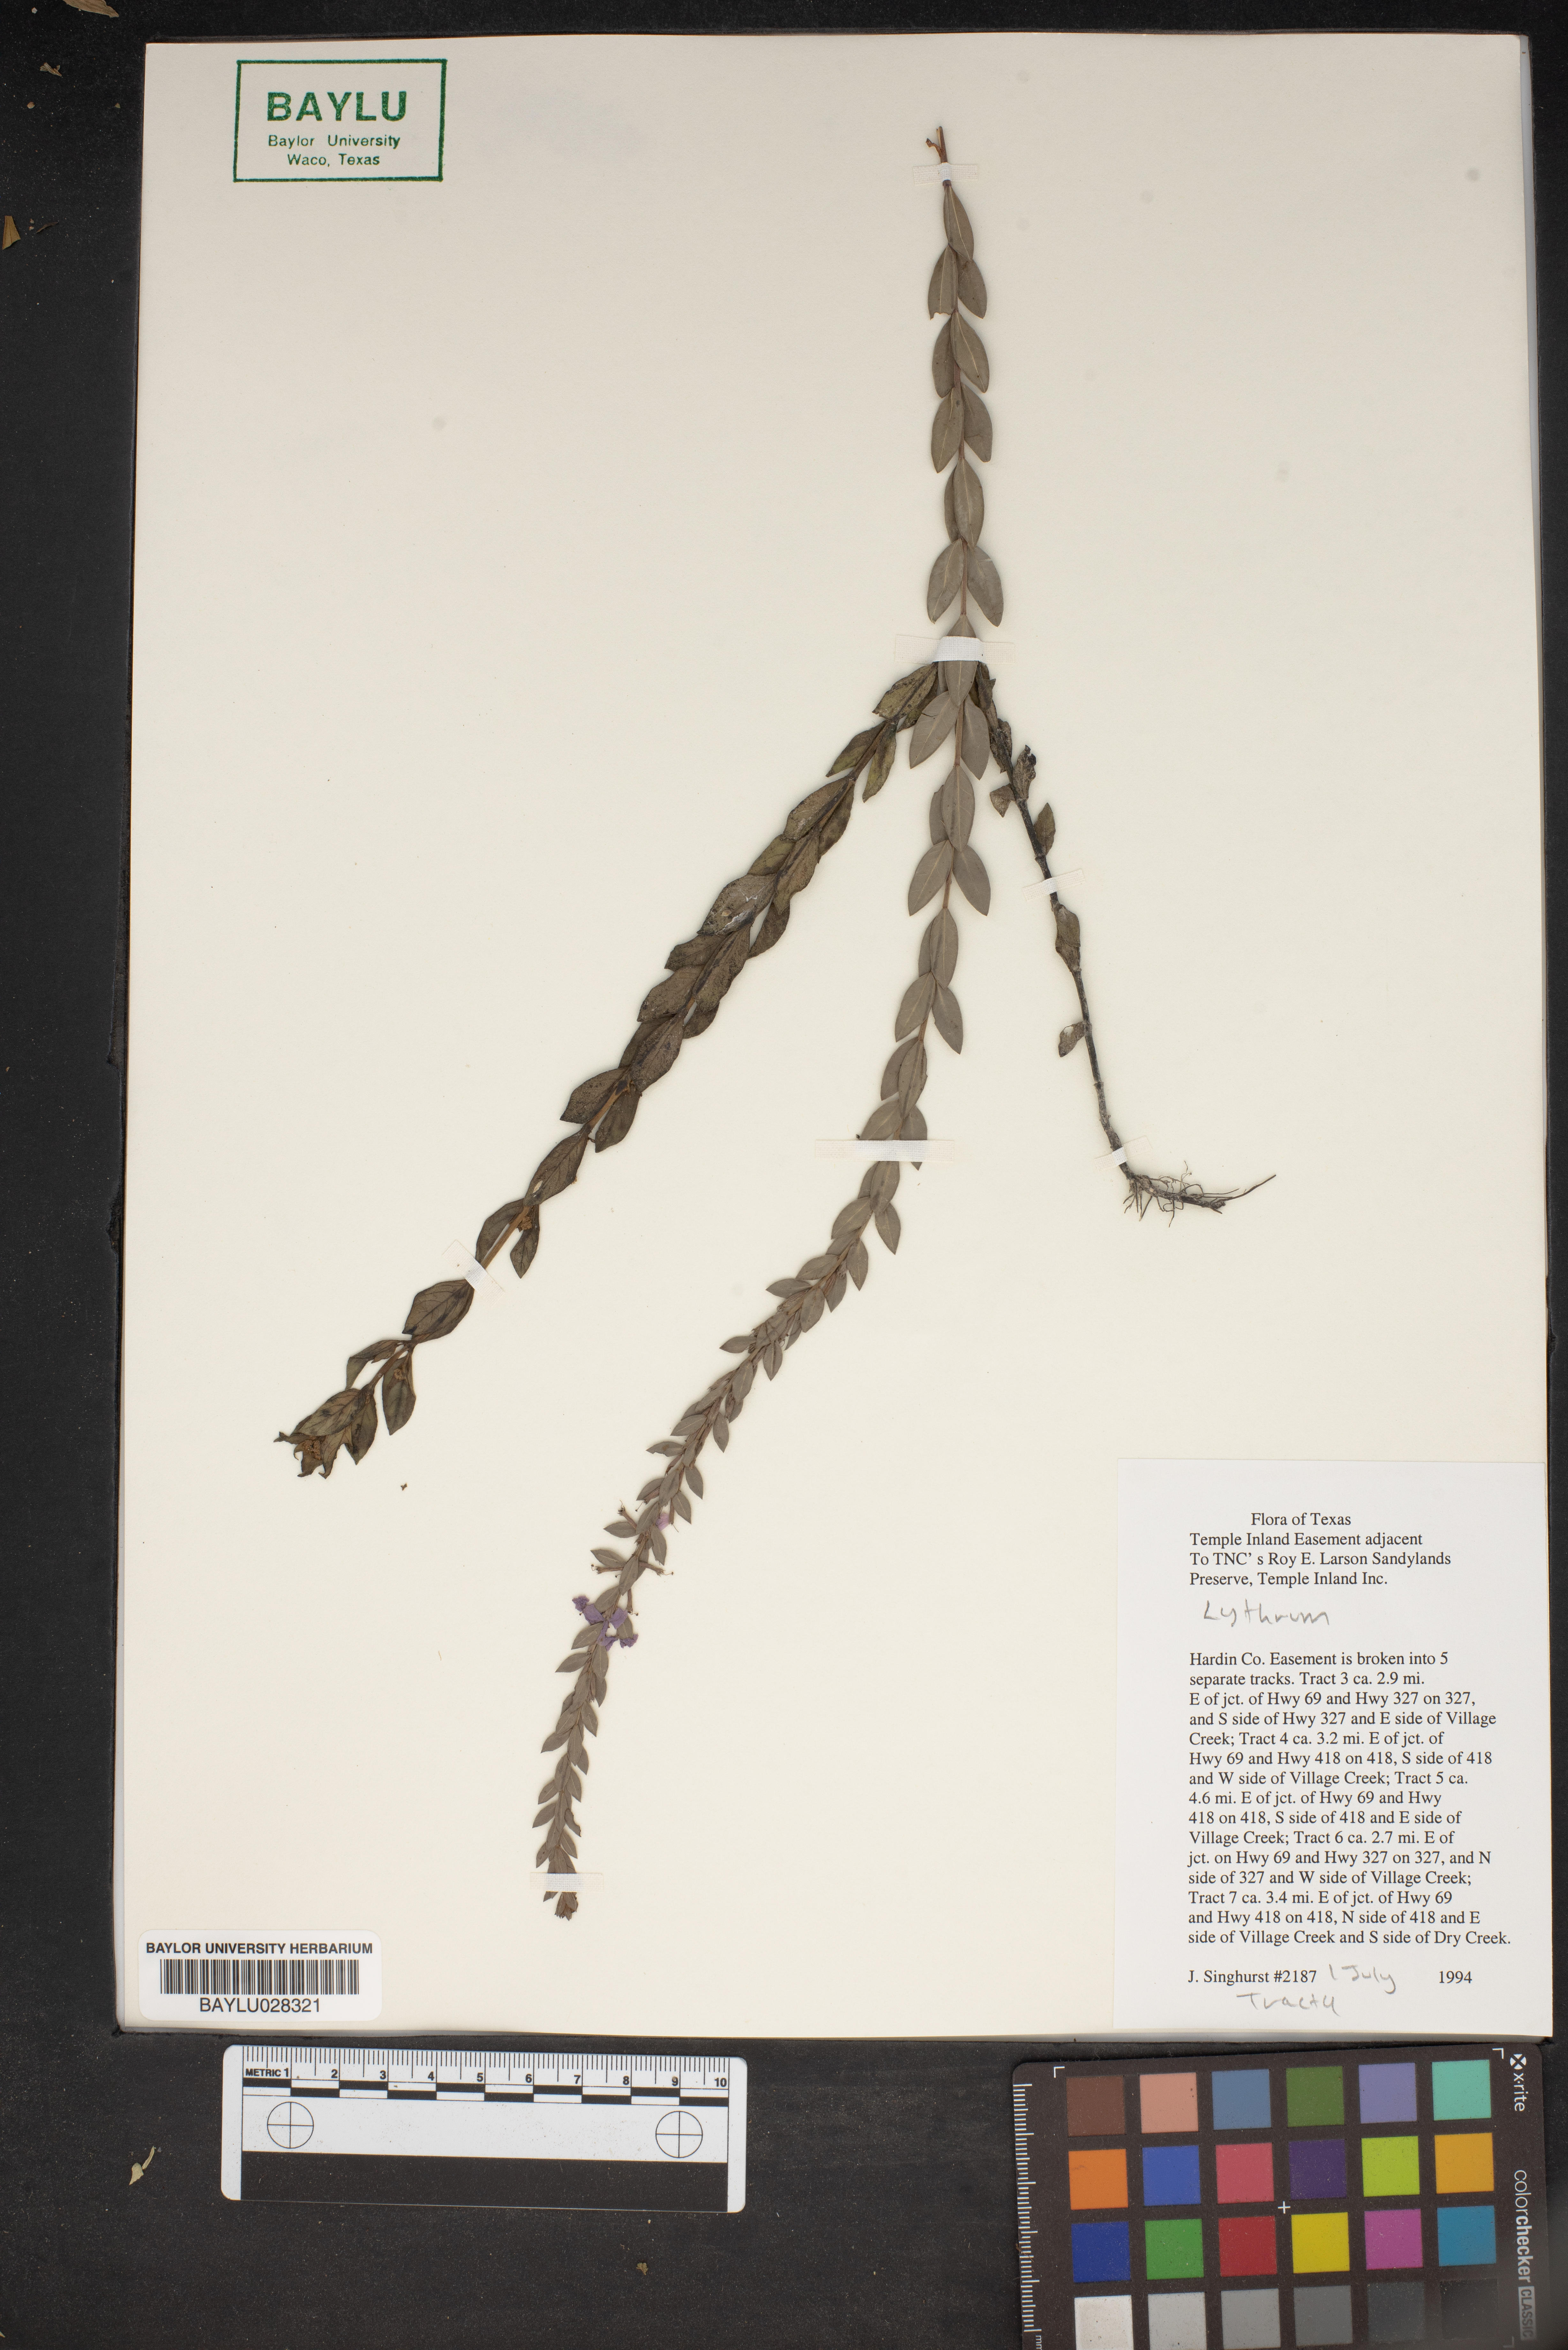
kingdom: Plantae
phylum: Tracheophyta
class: Magnoliopsida
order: Myrtales
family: Lythraceae
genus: Lythrum
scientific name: Lythrum
